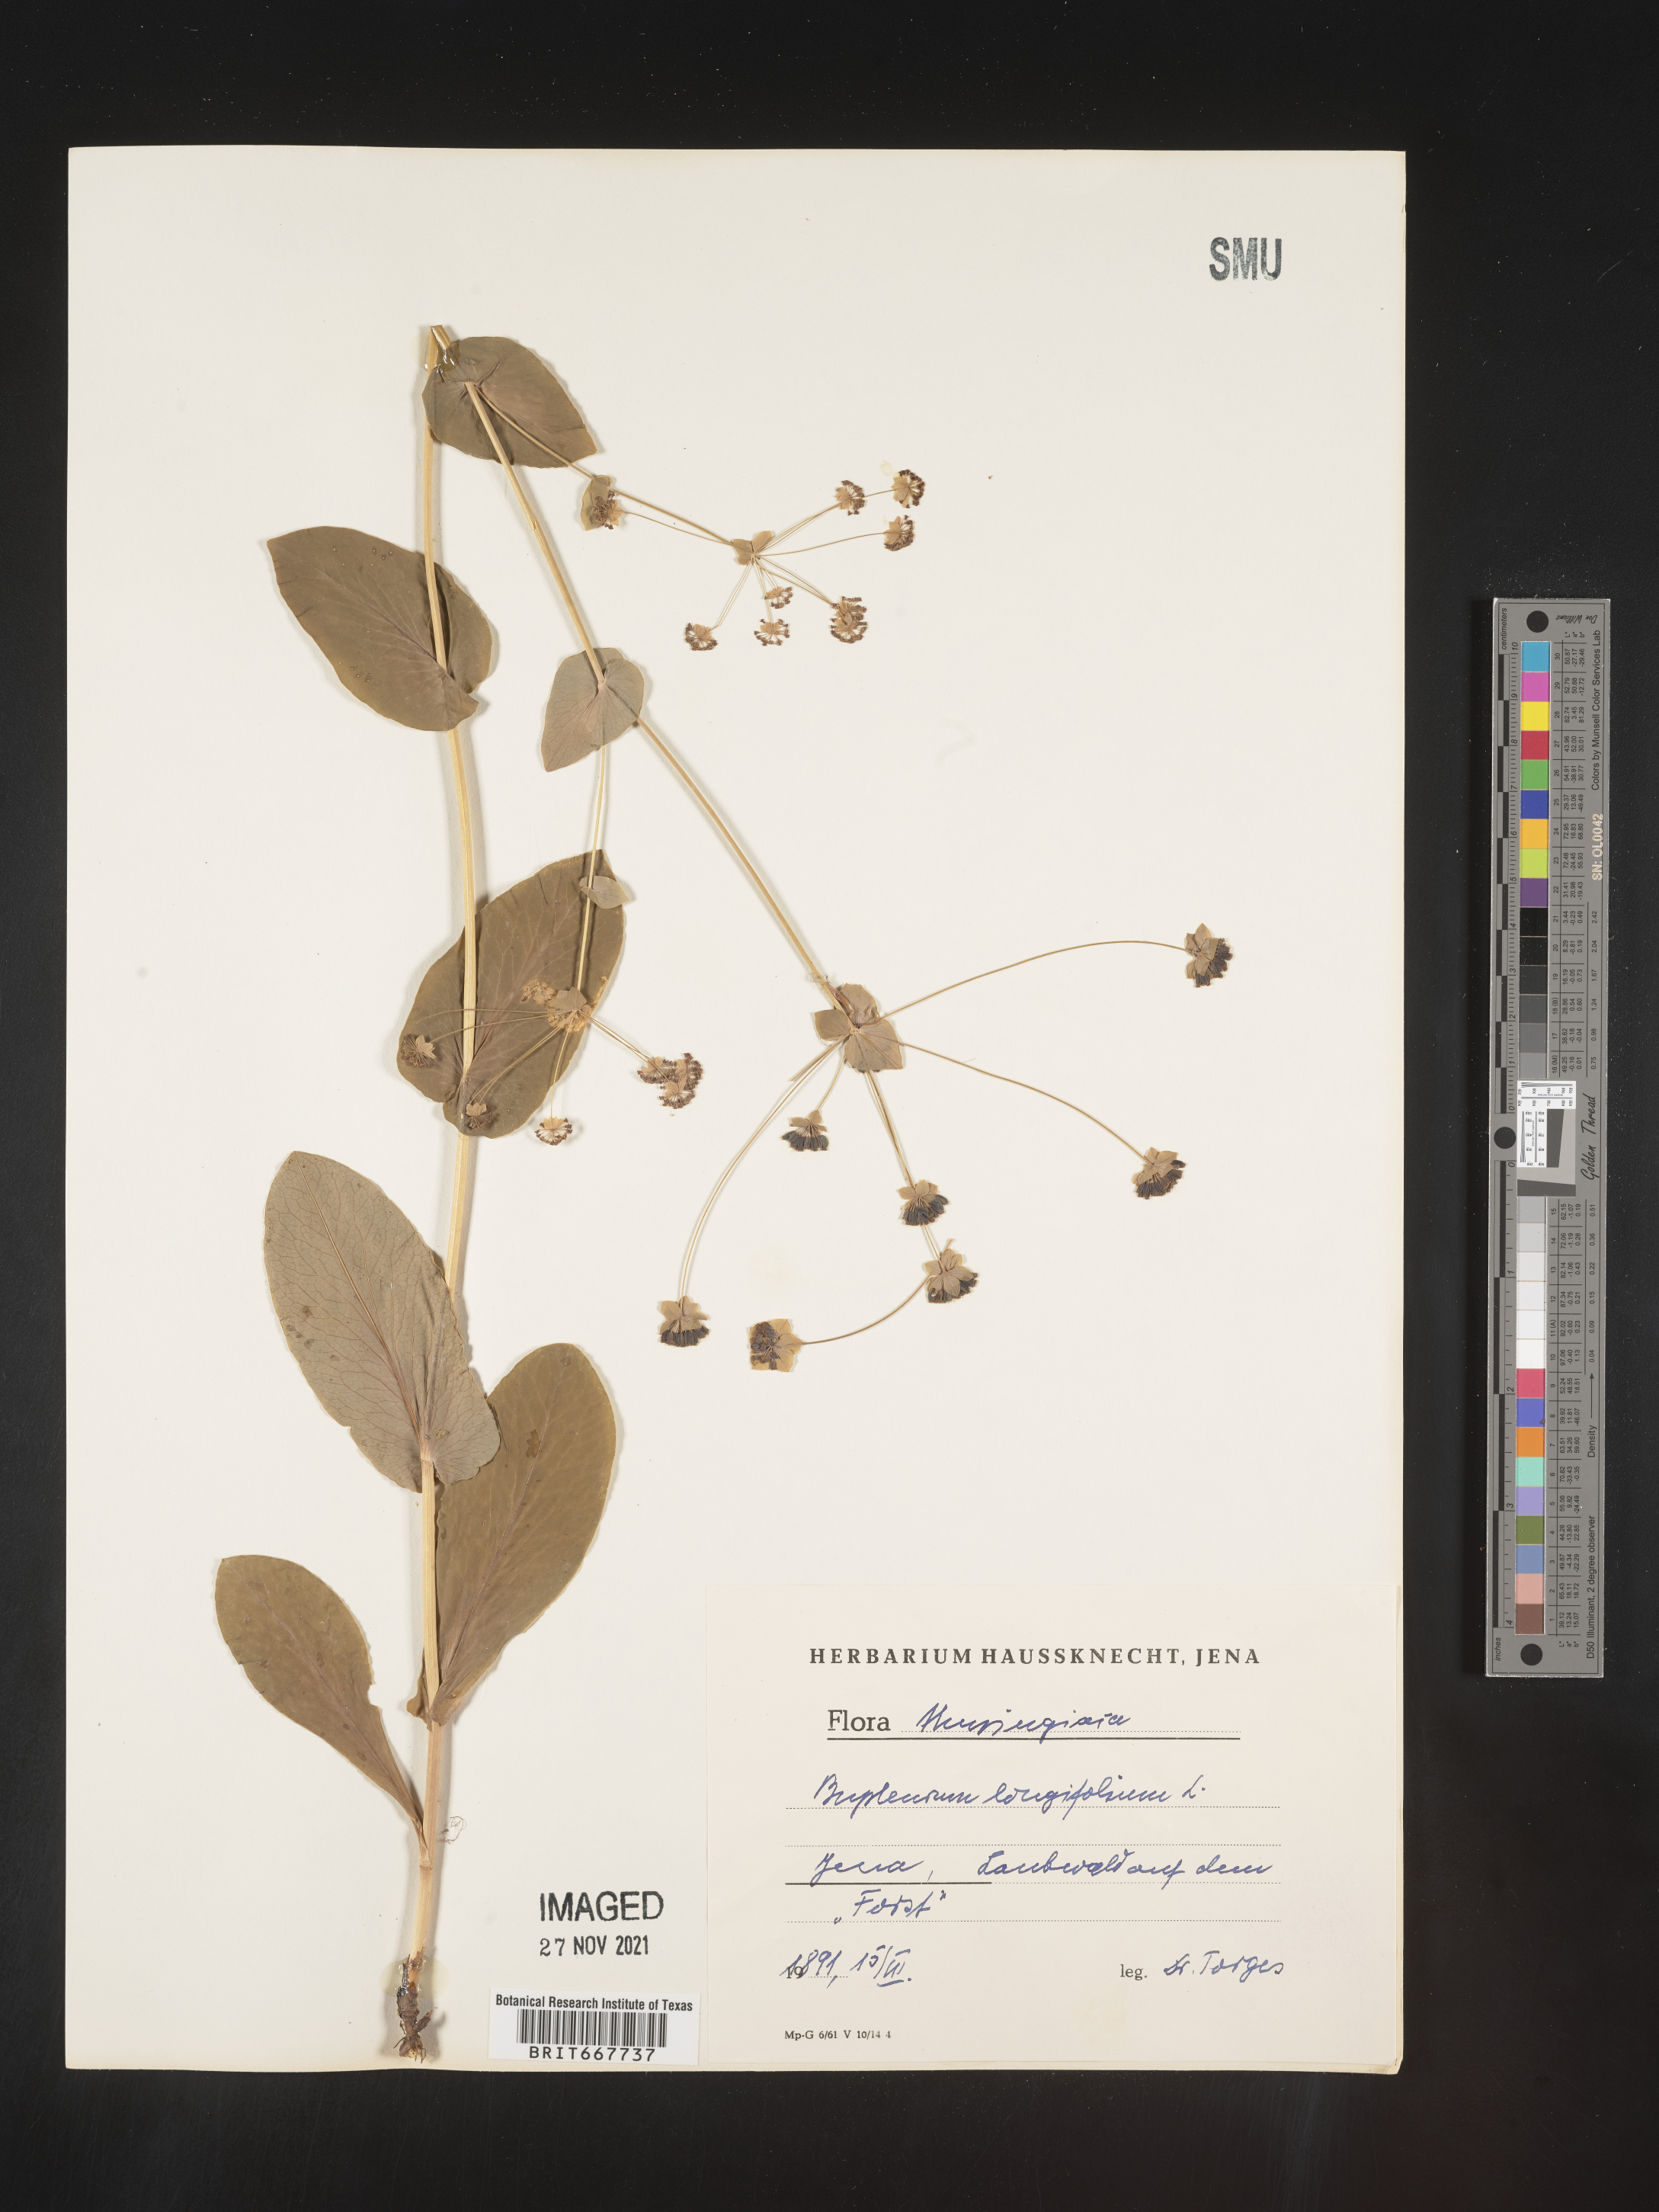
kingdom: Plantae
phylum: Tracheophyta
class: Magnoliopsida
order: Apiales
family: Apiaceae
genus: Bupleurum
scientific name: Bupleurum
